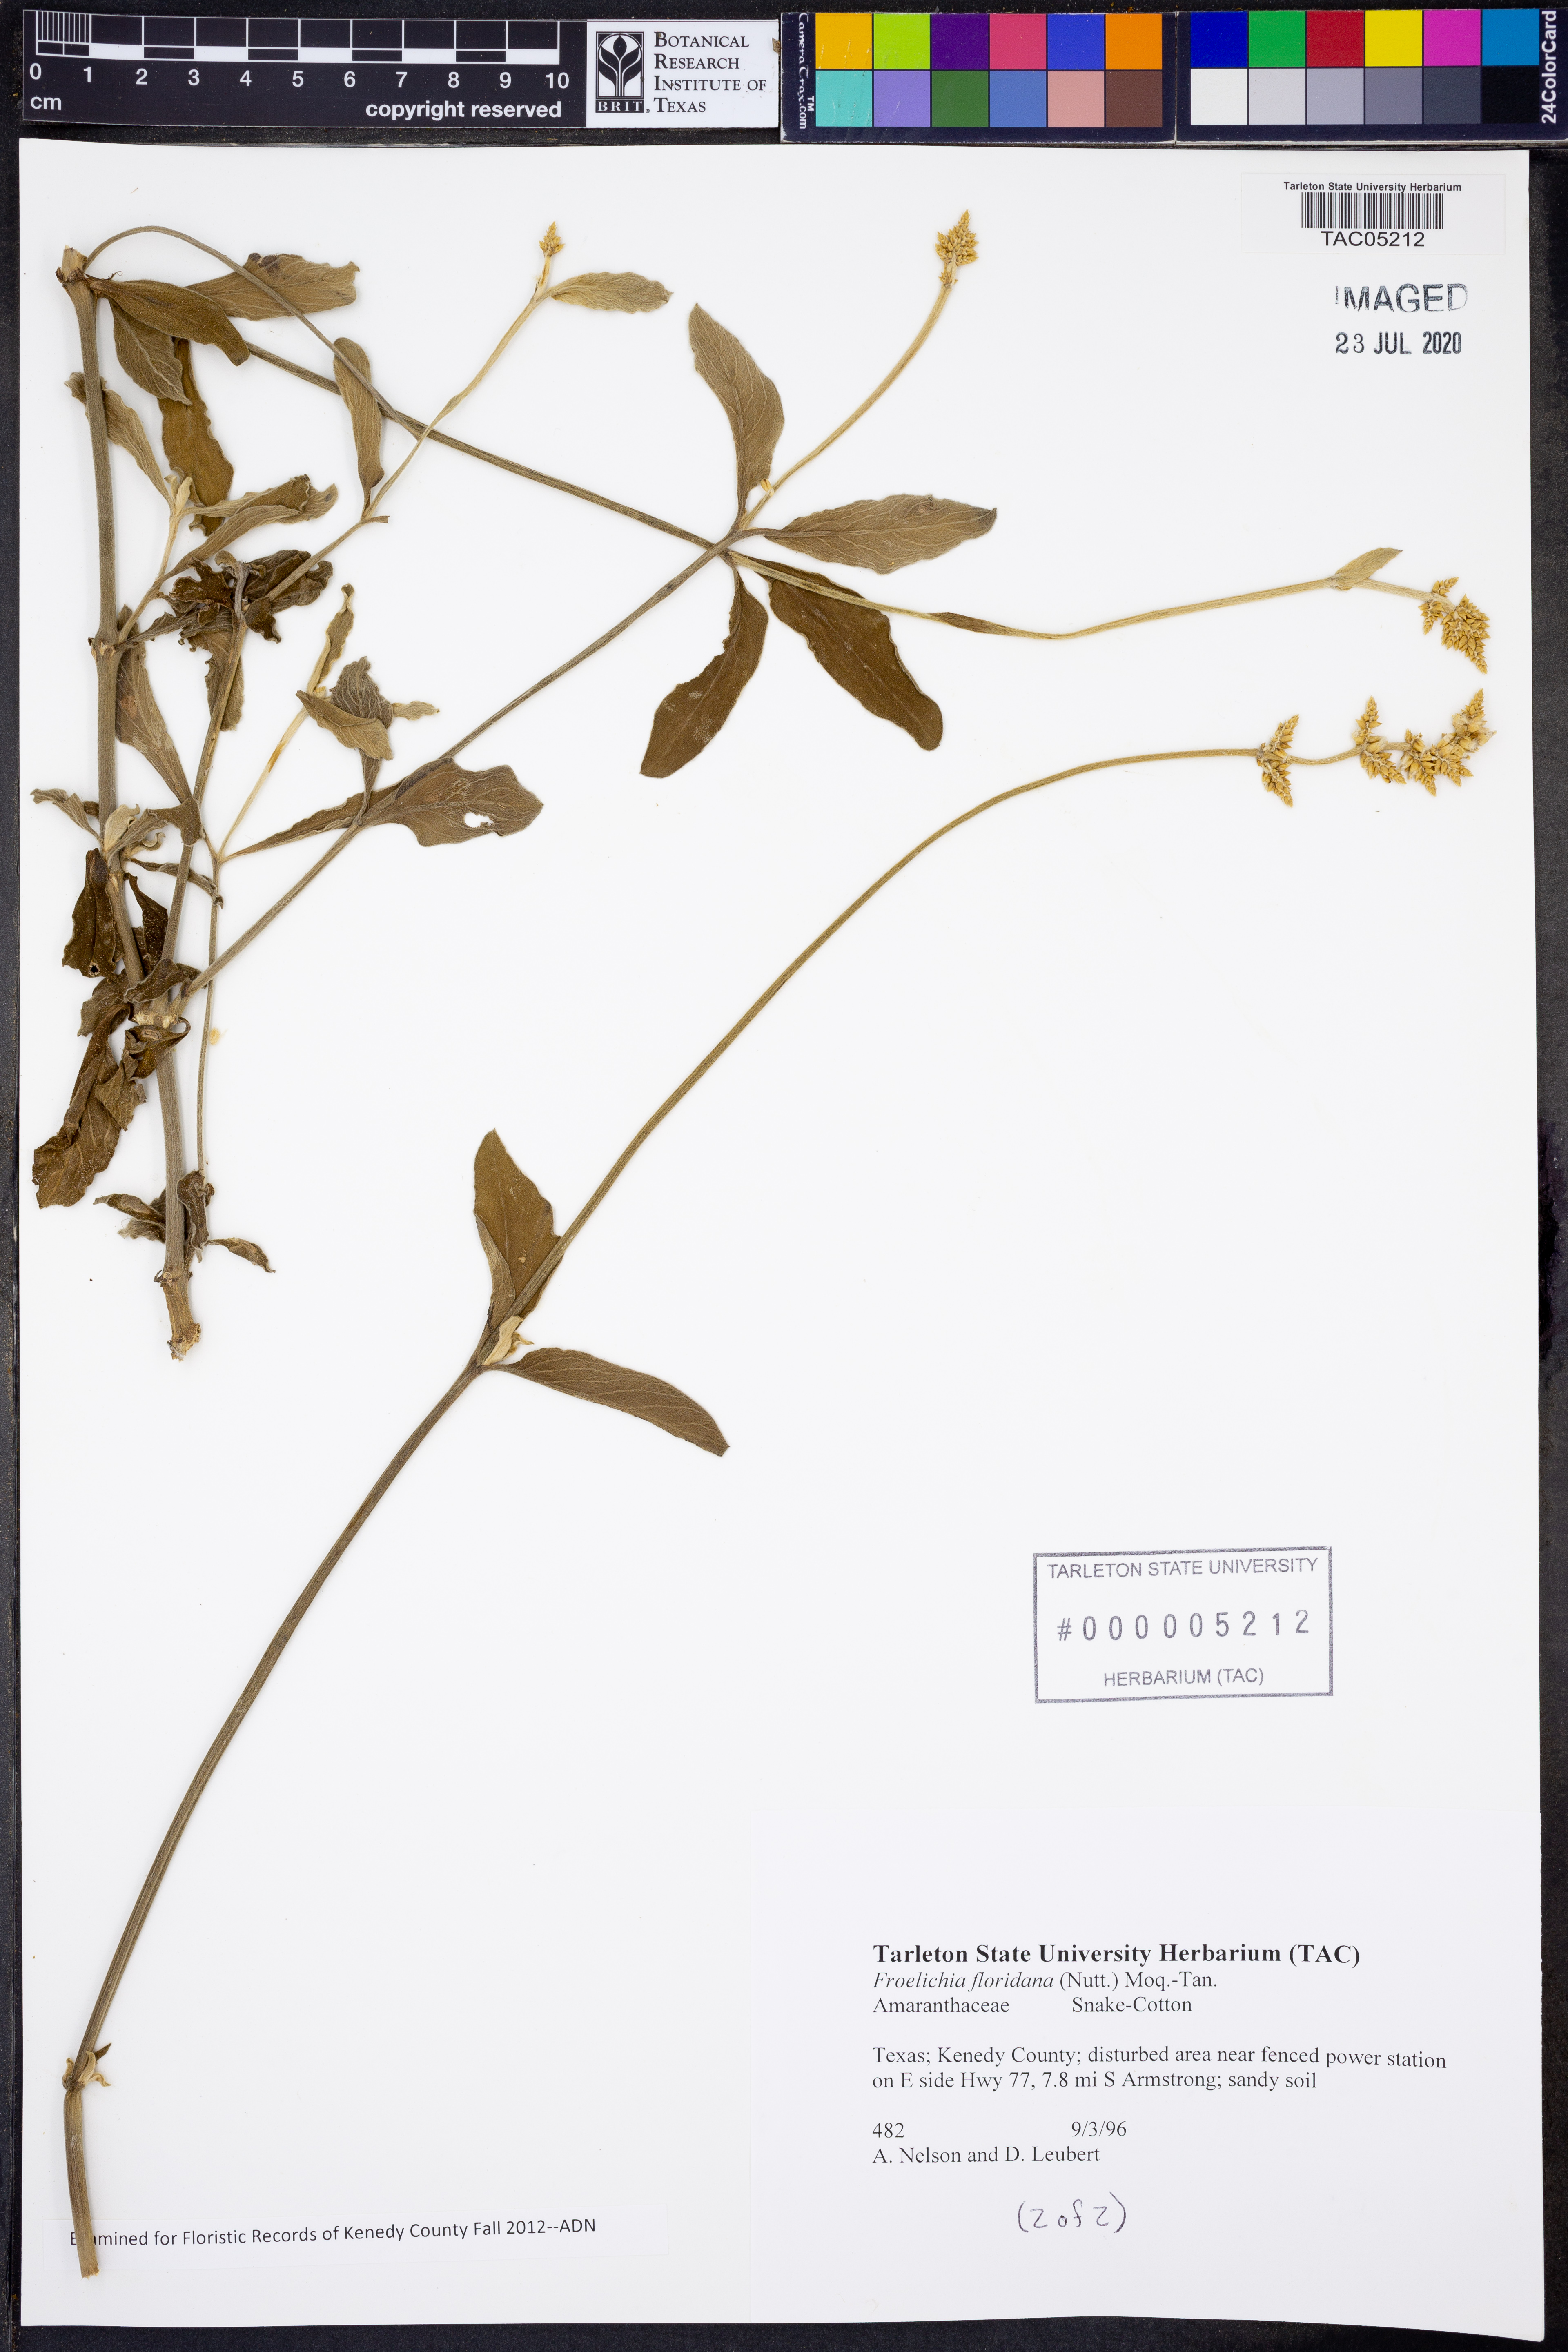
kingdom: Plantae
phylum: Tracheophyta
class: Magnoliopsida
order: Caryophyllales
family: Amaranthaceae
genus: Froelichia
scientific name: Froelichia floridana
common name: Florida snake-cotton
